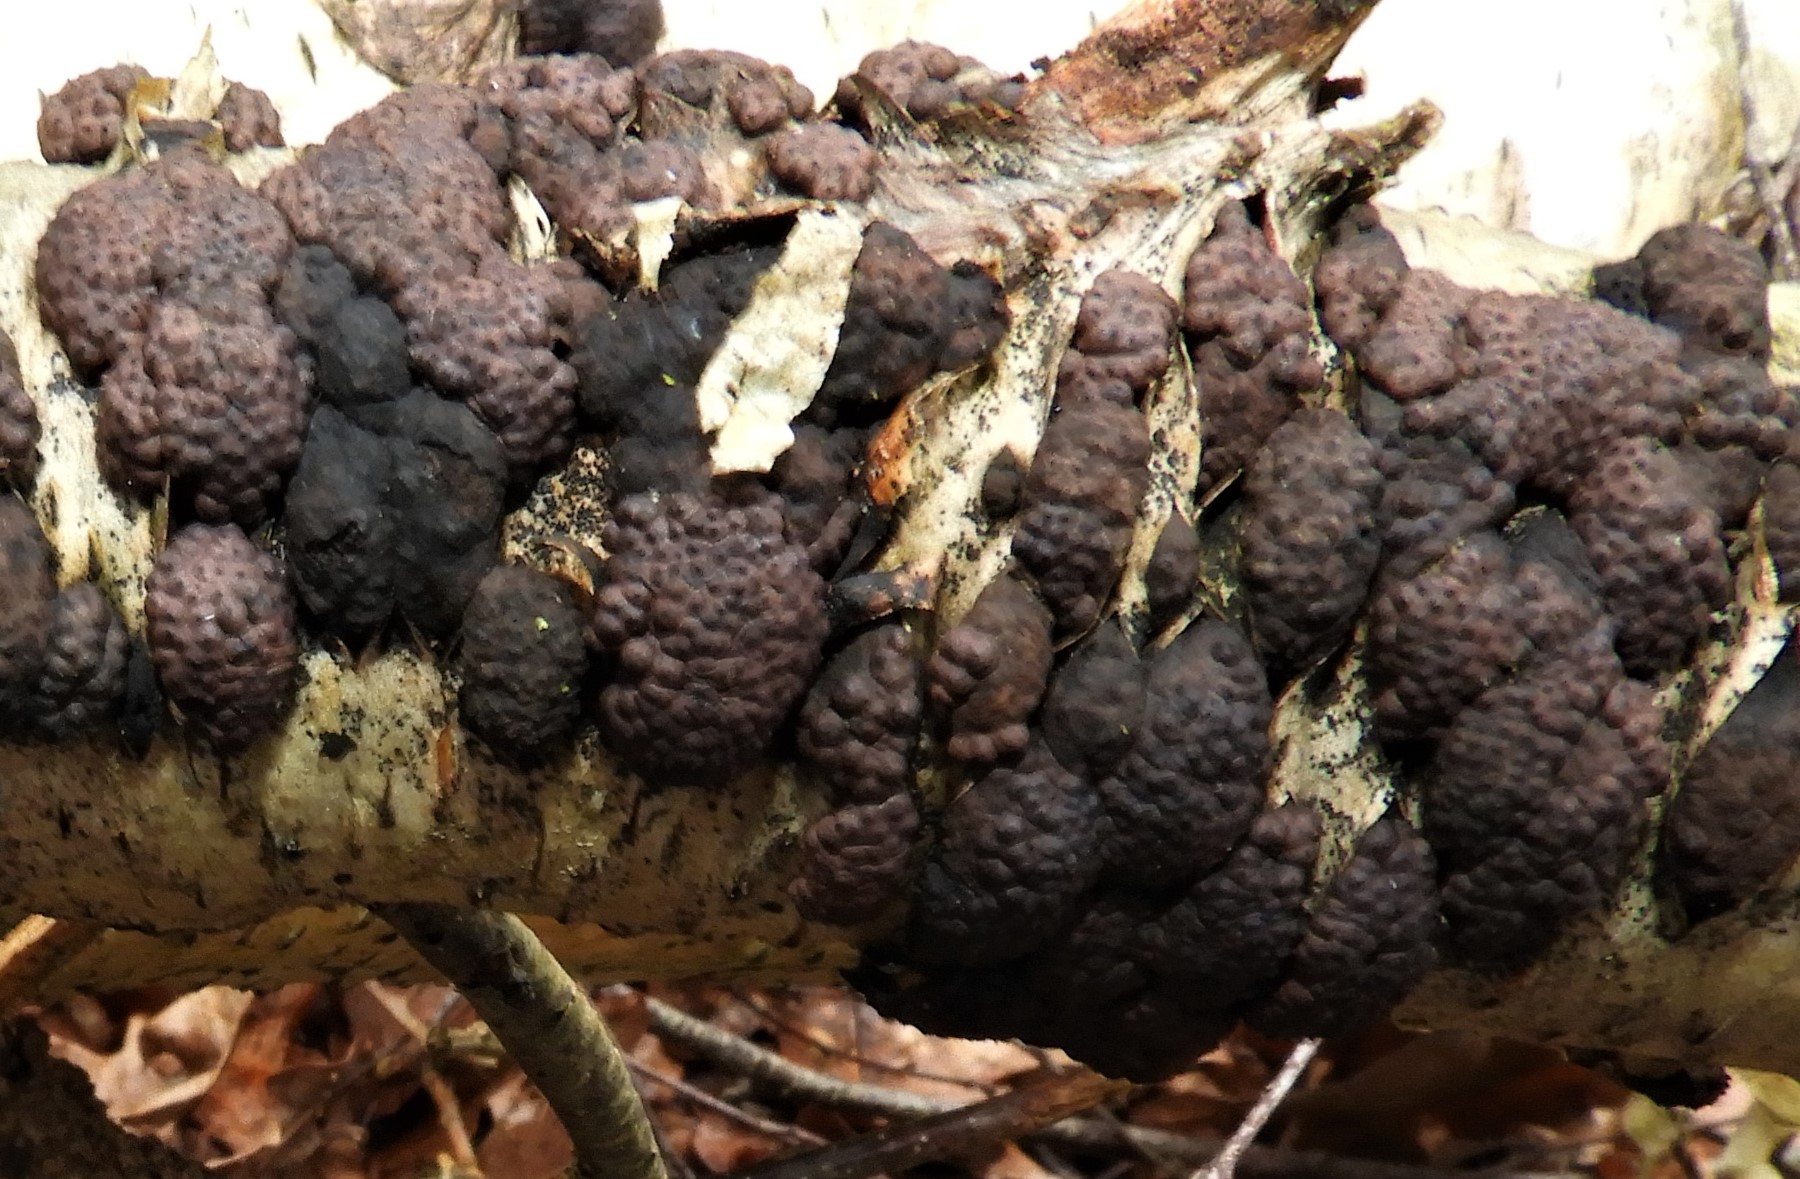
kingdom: Fungi
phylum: Ascomycota
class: Sordariomycetes
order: Xylariales
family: Hypoxylaceae
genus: Jackrogersella
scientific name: Jackrogersella multiformis
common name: foranderlig kulbær
